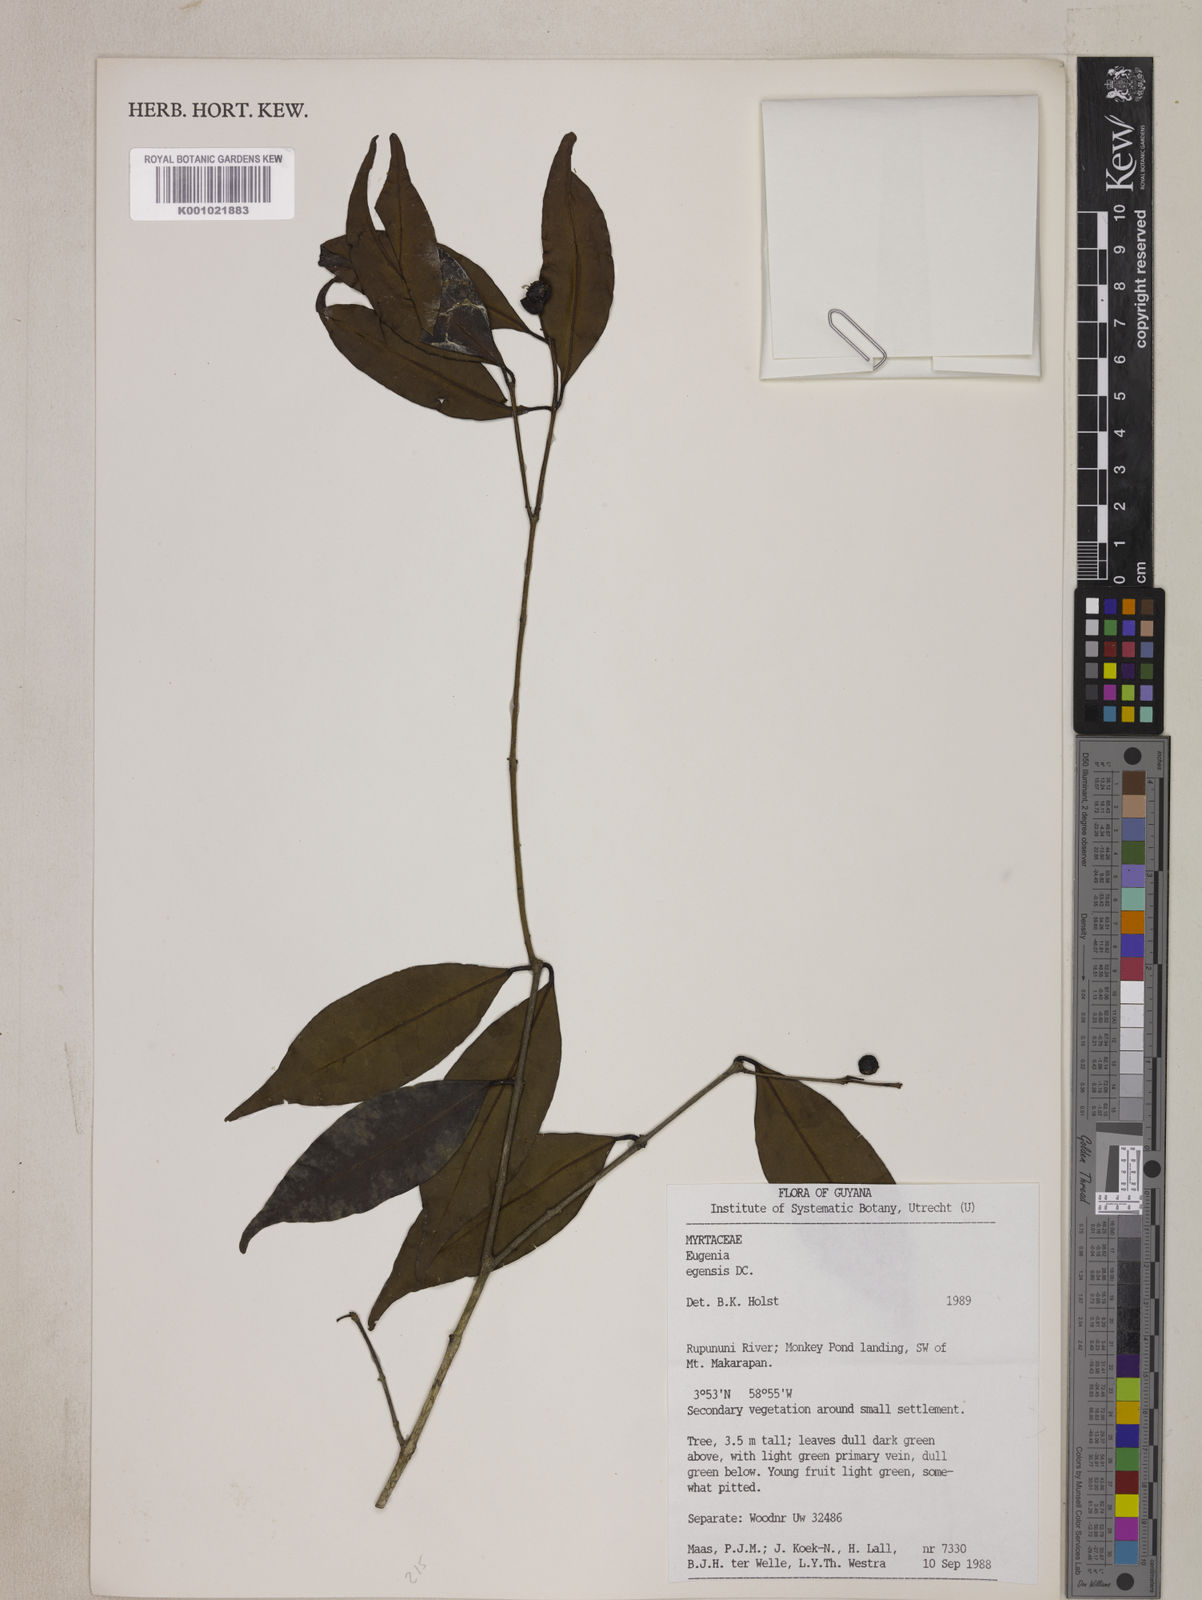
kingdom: Plantae
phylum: Tracheophyta
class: Magnoliopsida
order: Myrtales
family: Myrtaceae
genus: Eugenia
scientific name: Eugenia egensis
